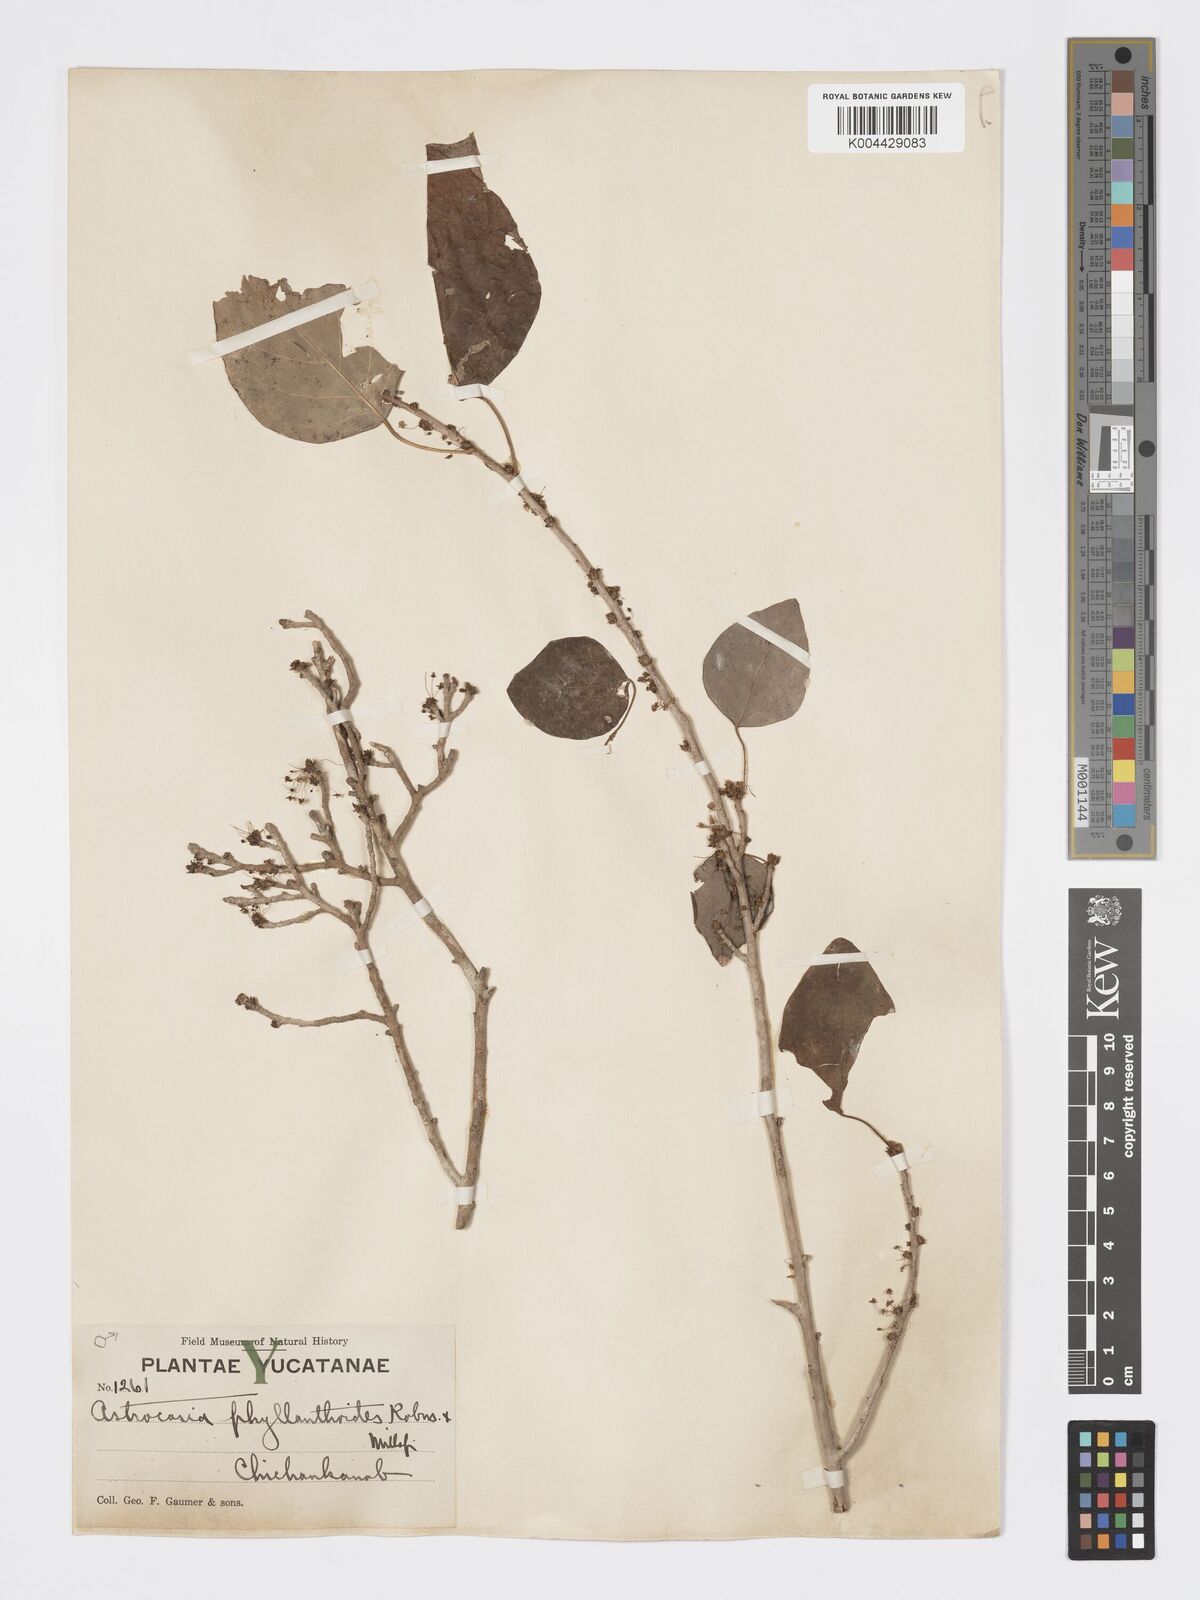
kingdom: Plantae
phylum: Tracheophyta
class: Magnoliopsida
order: Malpighiales
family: Phyllanthaceae
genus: Astrocasia
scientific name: Astrocasia tremula
